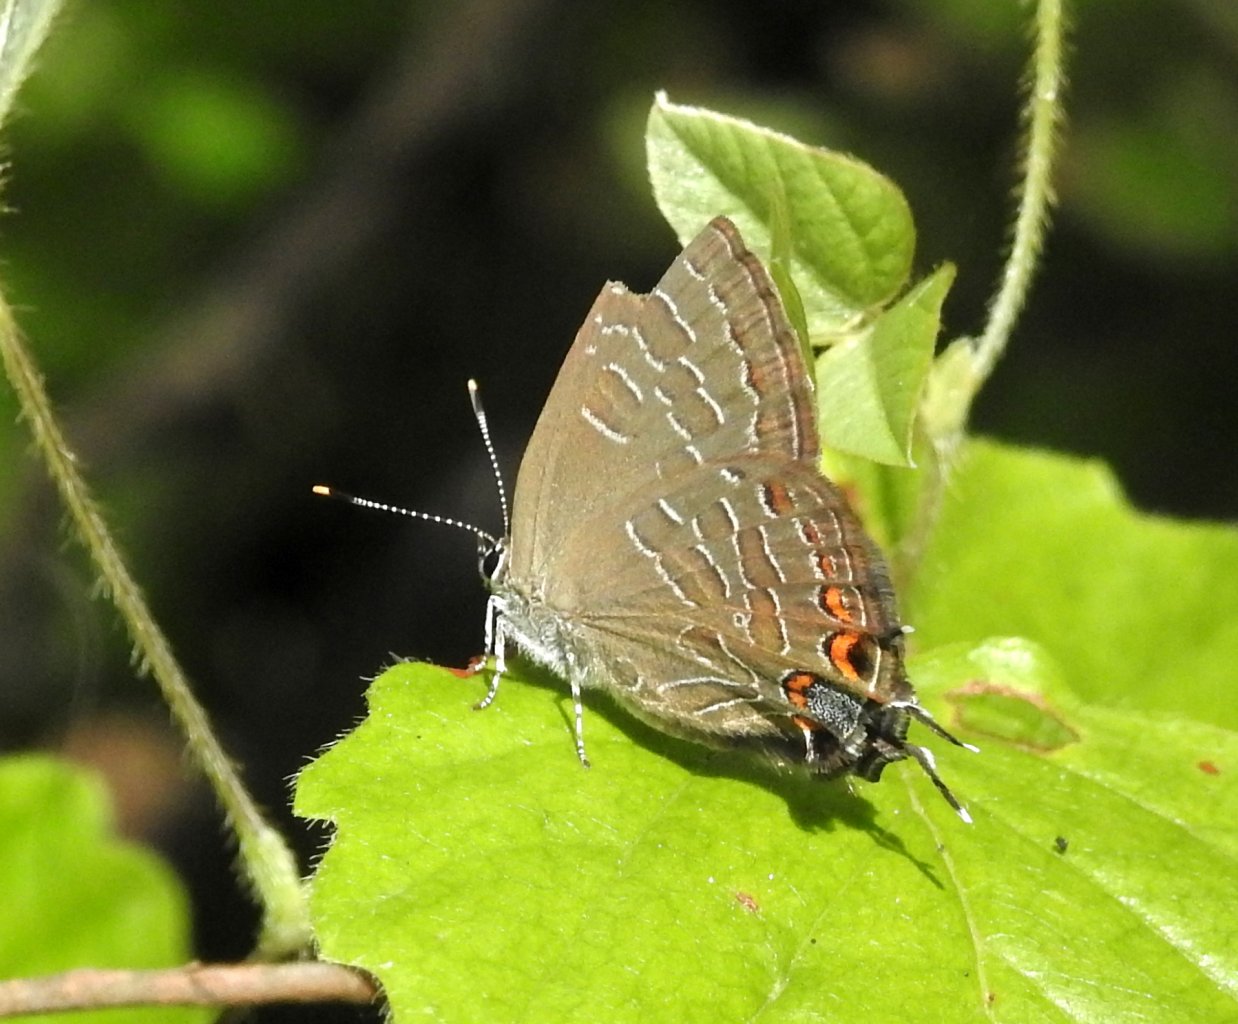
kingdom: Animalia
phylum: Arthropoda
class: Insecta
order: Lepidoptera
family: Lycaenidae
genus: Satyrium
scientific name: Satyrium liparops
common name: Striped Hairstreak
